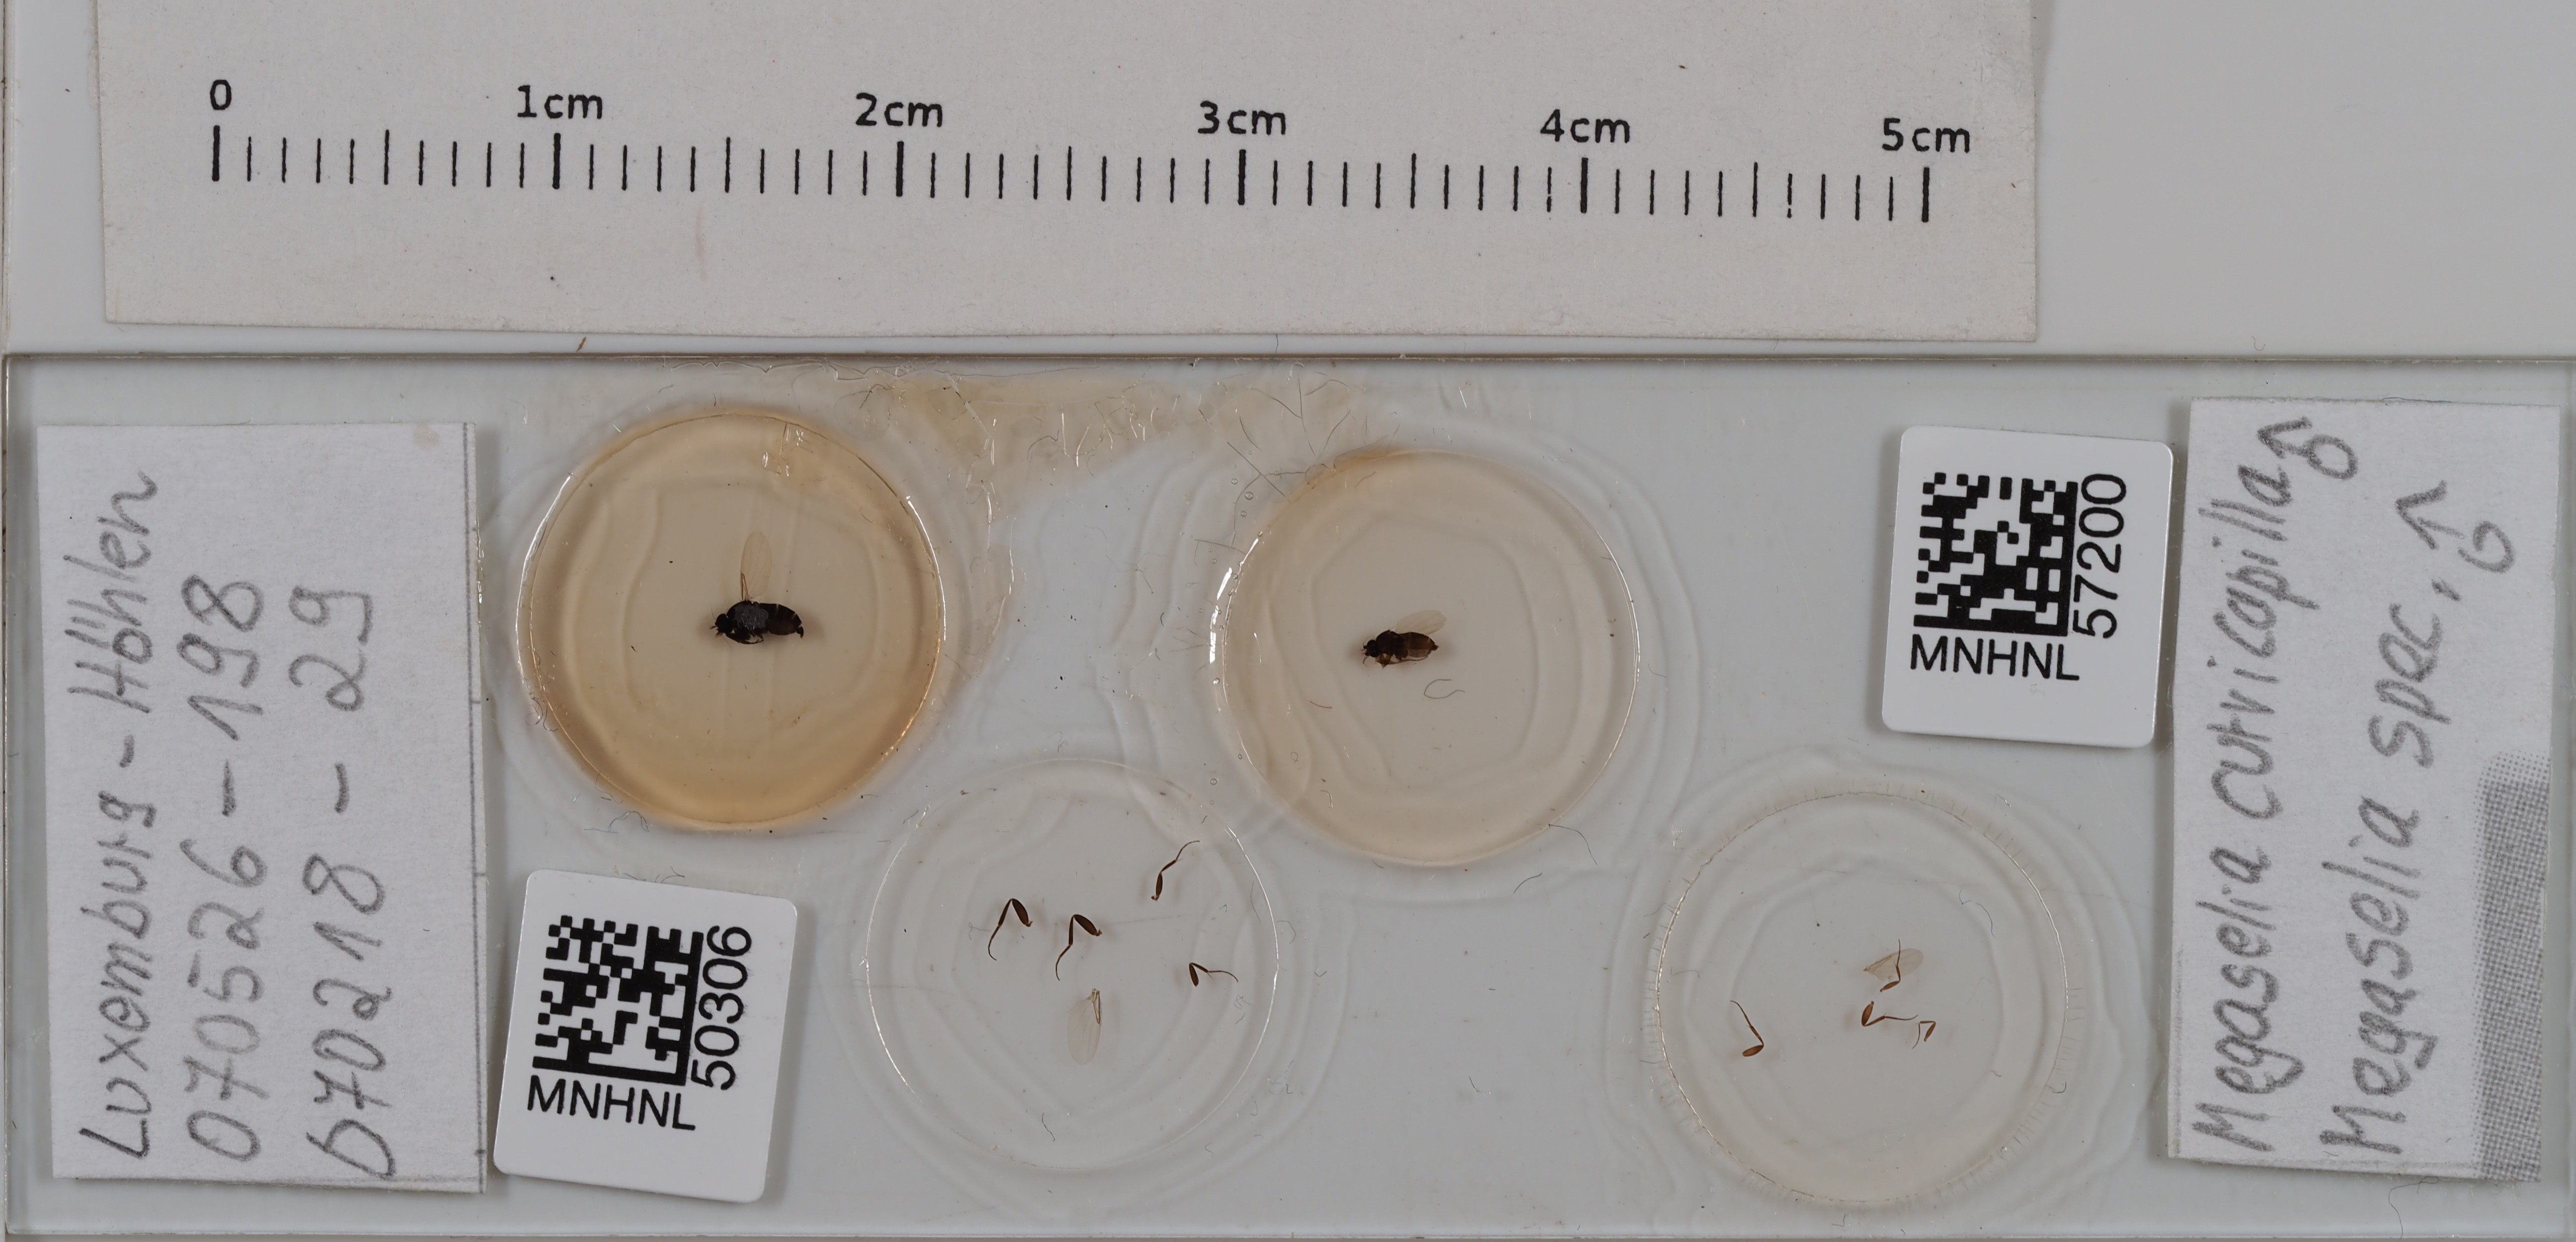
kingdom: Animalia
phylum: Arthropoda
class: Insecta
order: Diptera
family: Phoridae
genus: Megaselia
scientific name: Megaselia curvicapilla
